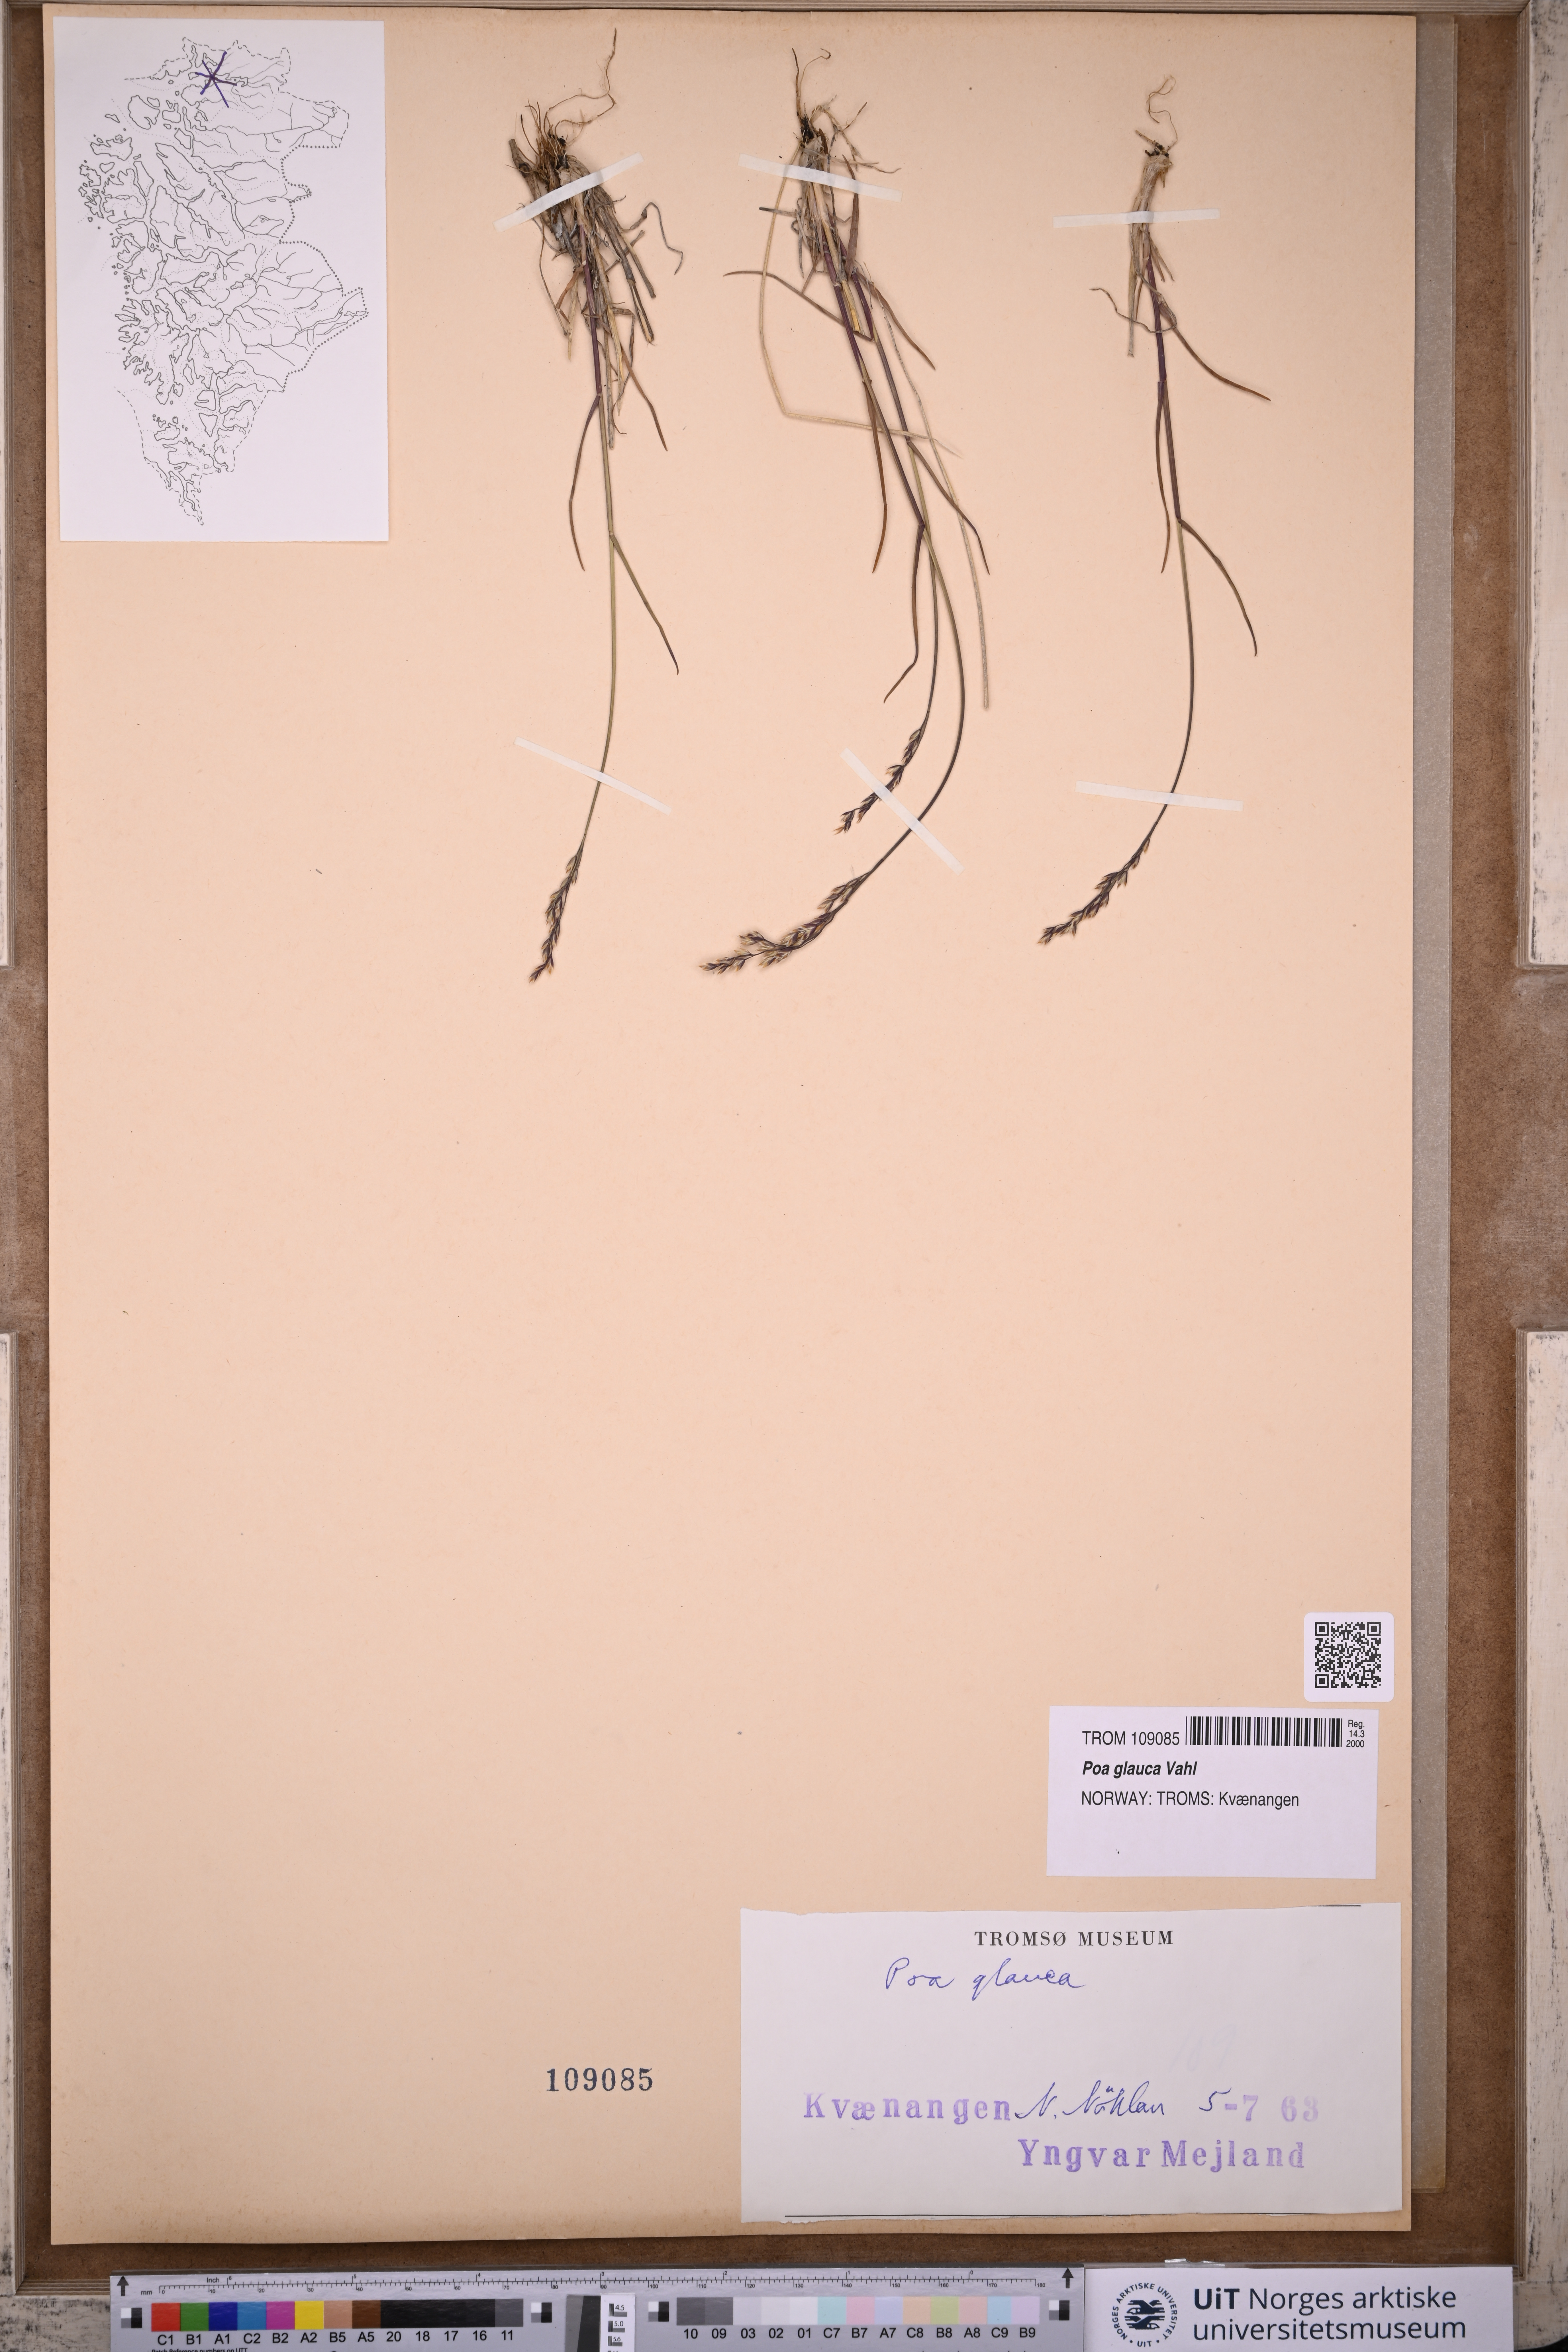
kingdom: Plantae
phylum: Tracheophyta
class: Liliopsida
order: Poales
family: Poaceae
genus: Poa
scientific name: Poa glauca
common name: Glaucous bluegrass
